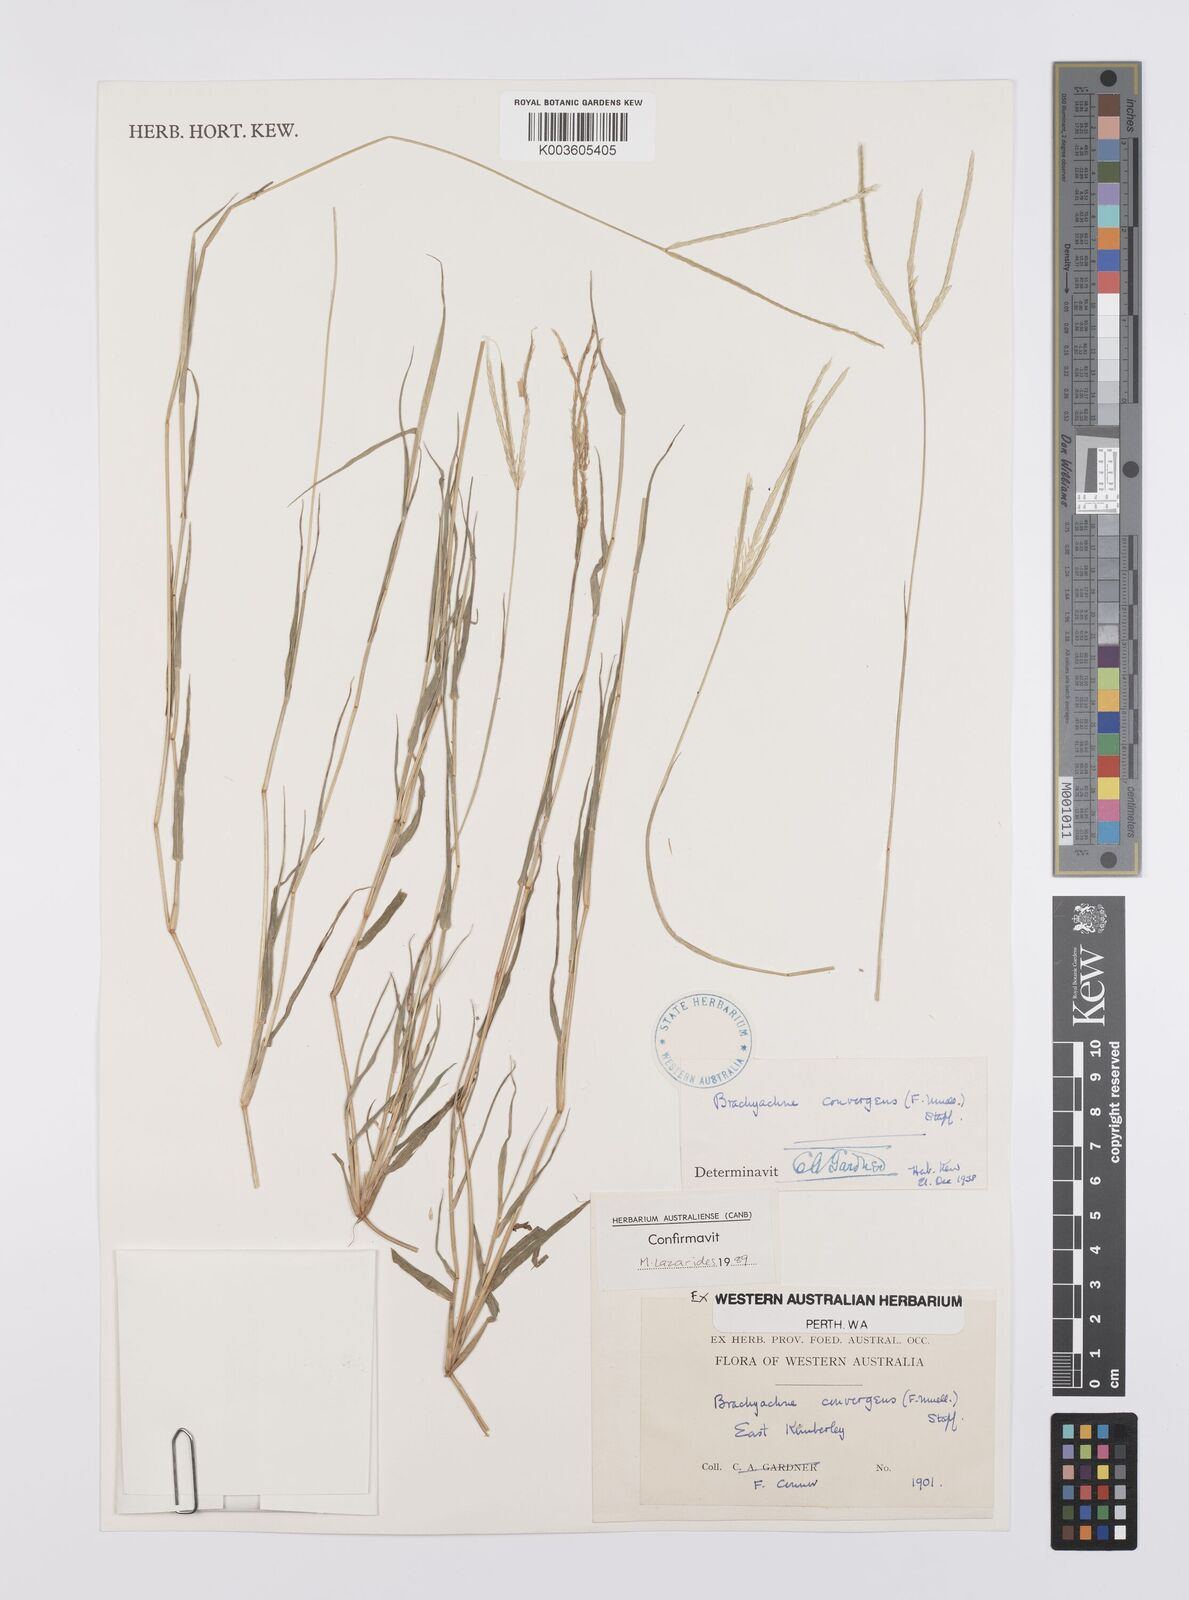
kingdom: Plantae
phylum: Tracheophyta
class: Liliopsida
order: Poales
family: Poaceae
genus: Cynodon
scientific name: Cynodon
